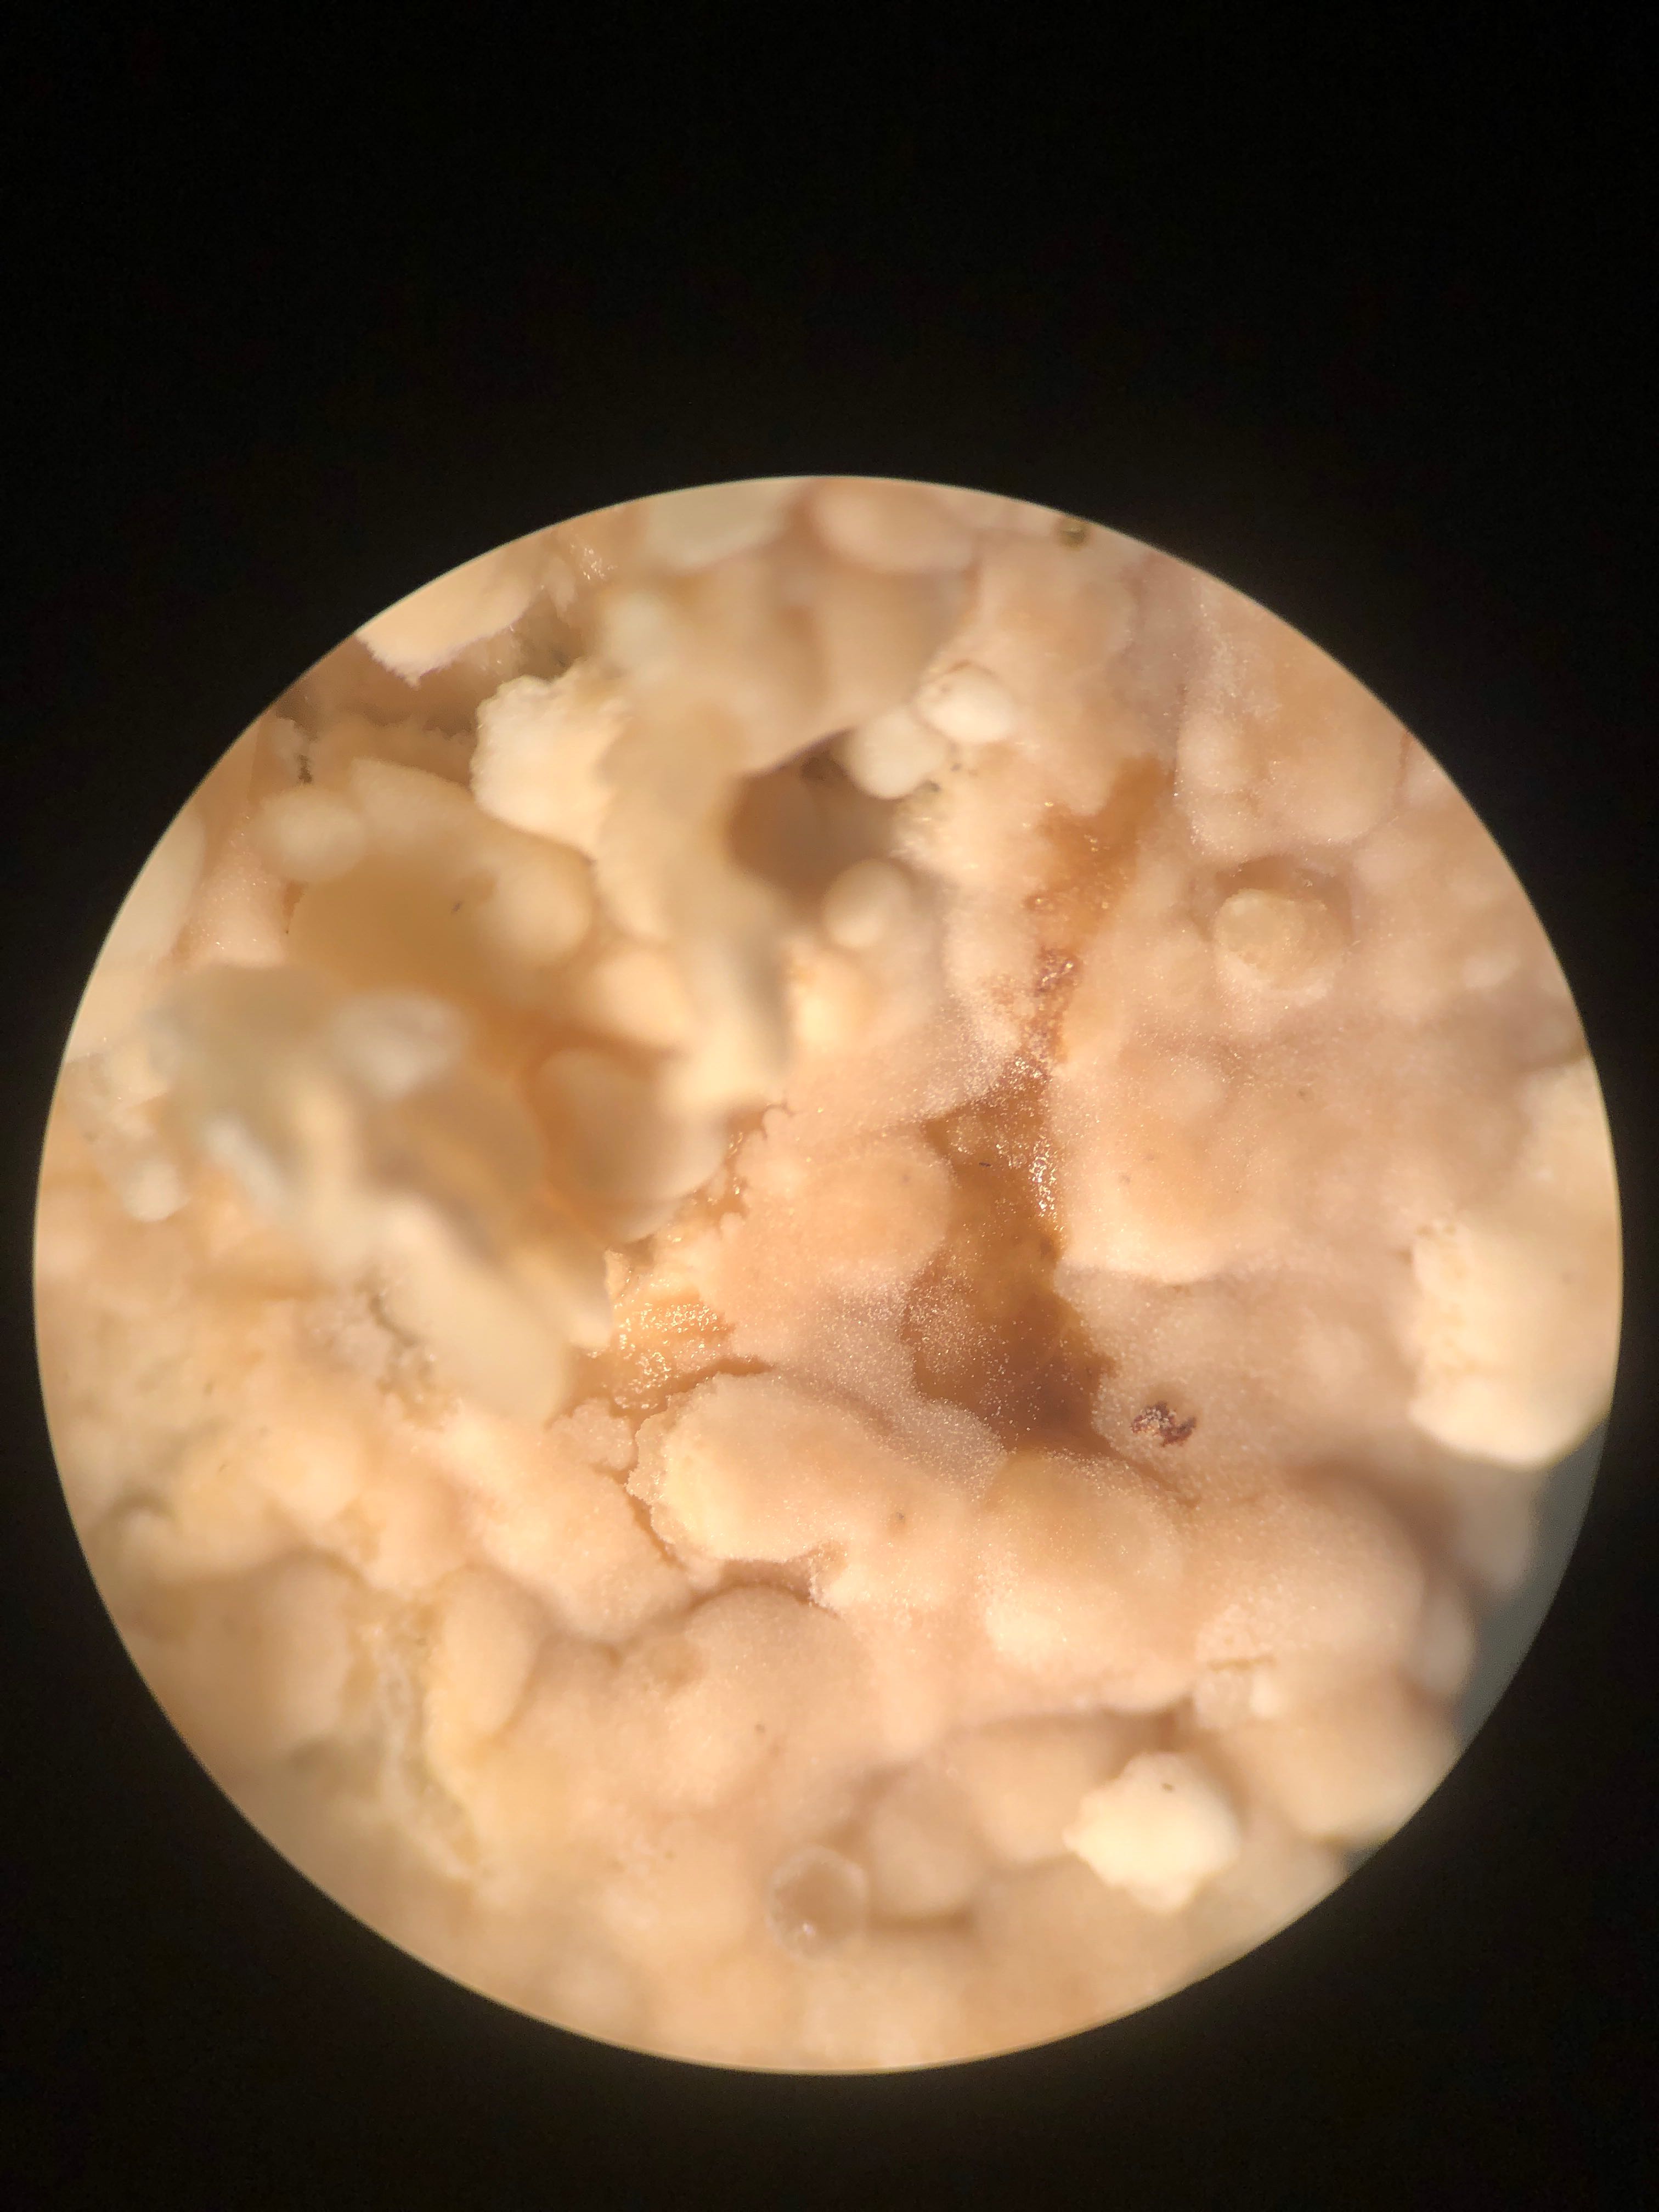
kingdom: Fungi
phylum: Basidiomycota
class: Agaricomycetes
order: Agaricales
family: Physalacriaceae
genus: Cylindrobasidium
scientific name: Cylindrobasidium evolvens
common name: sprækkehinde
